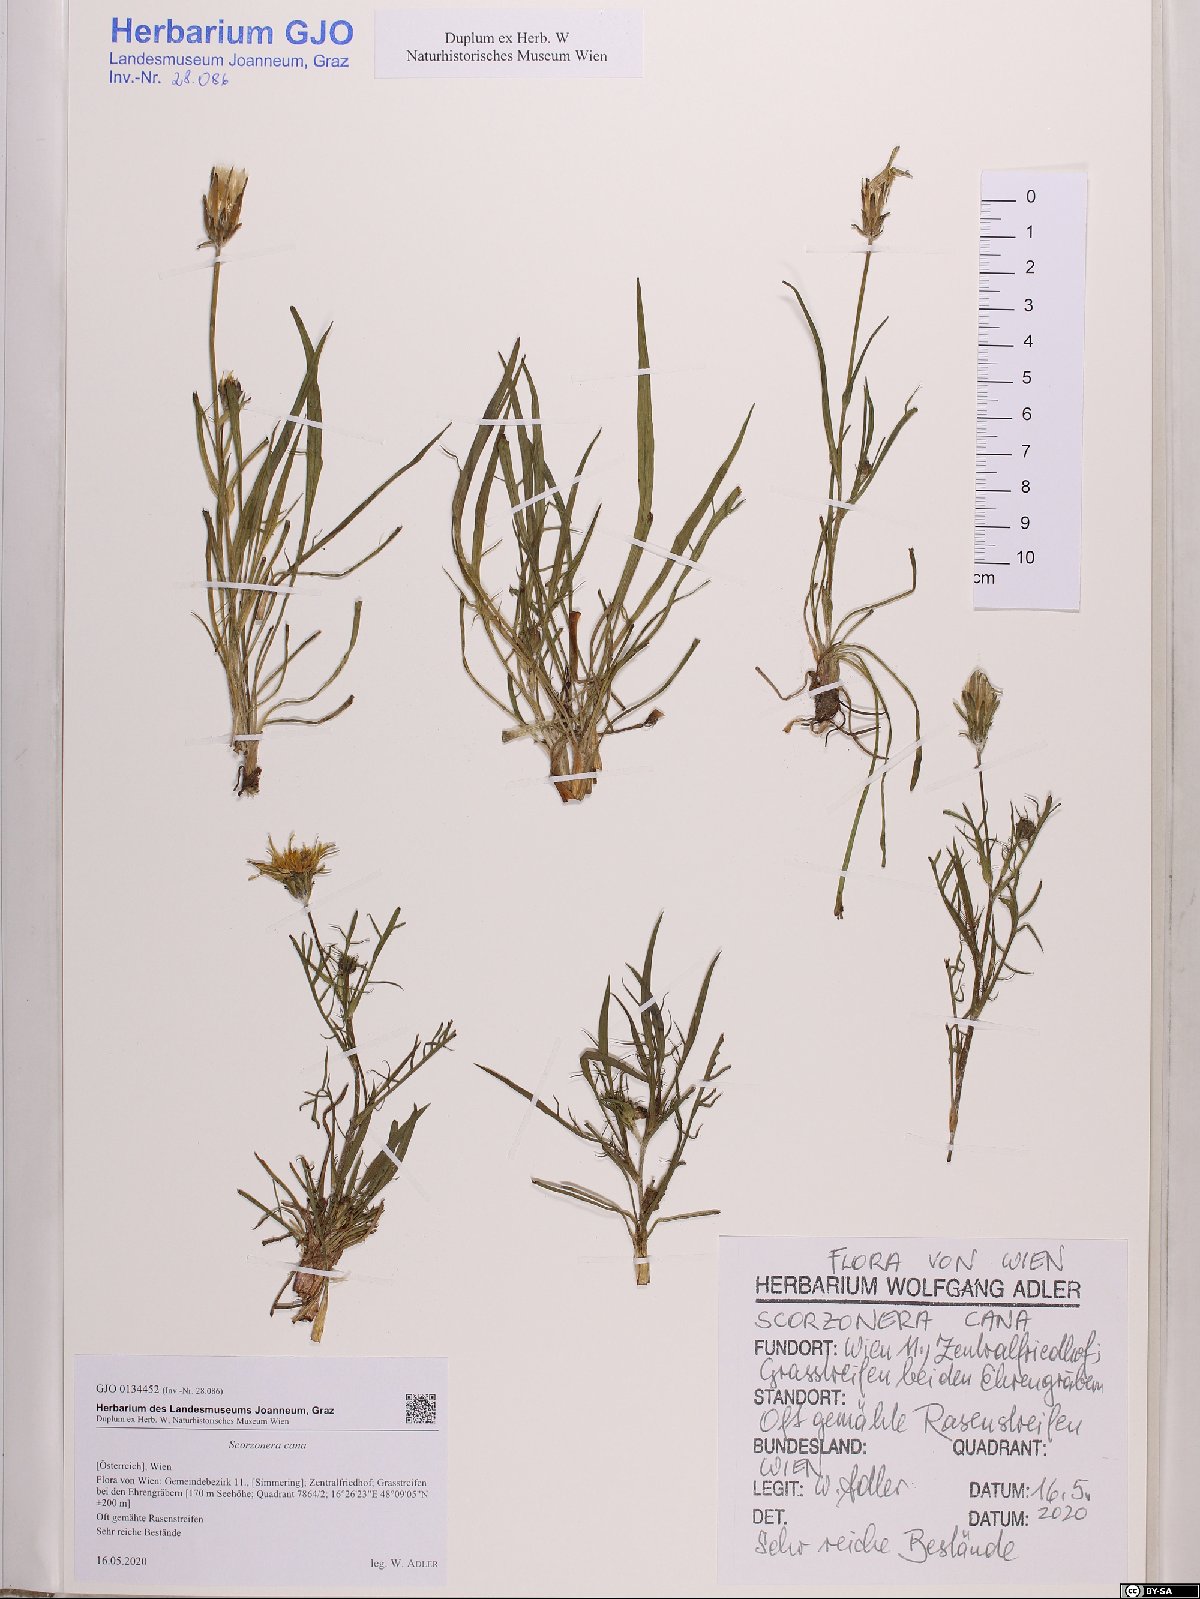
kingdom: Plantae
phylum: Tracheophyta
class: Magnoliopsida
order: Asterales
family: Asteraceae
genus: Scorzonera
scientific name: Scorzonera cana
